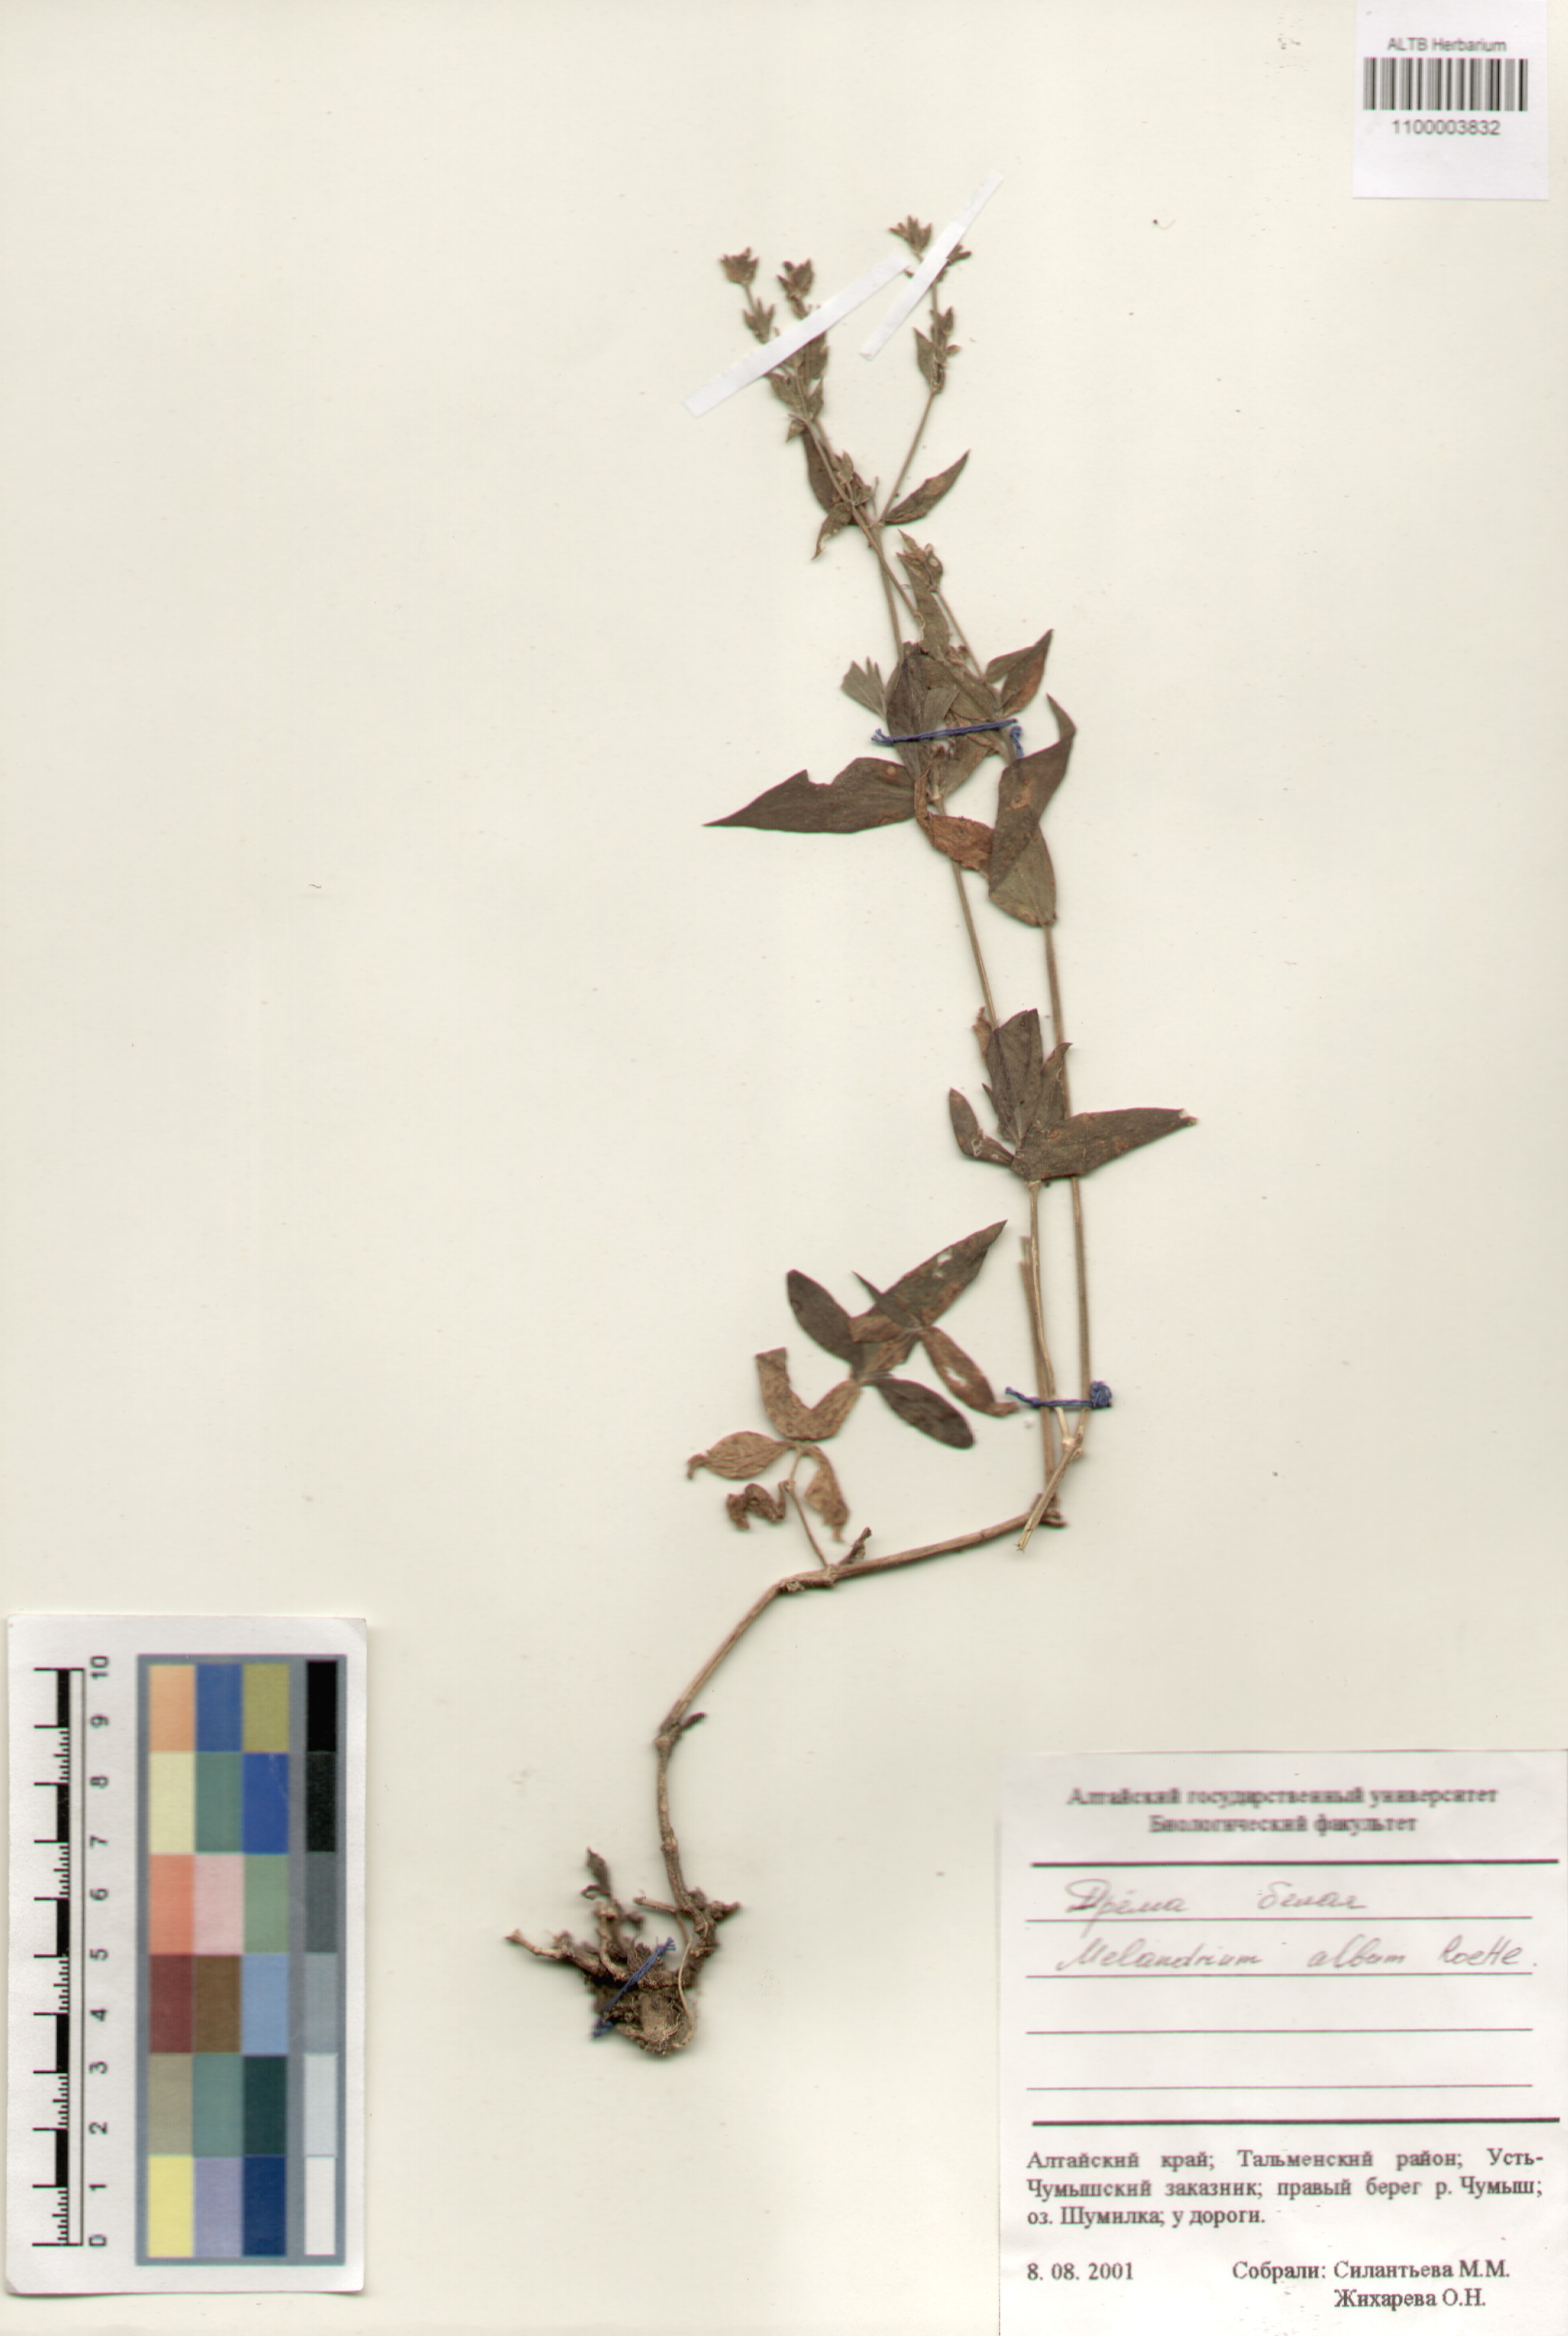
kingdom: Plantae
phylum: Tracheophyta
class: Magnoliopsida
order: Caryophyllales
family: Caryophyllaceae
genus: Silene
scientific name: Silene latifolia
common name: White campion
